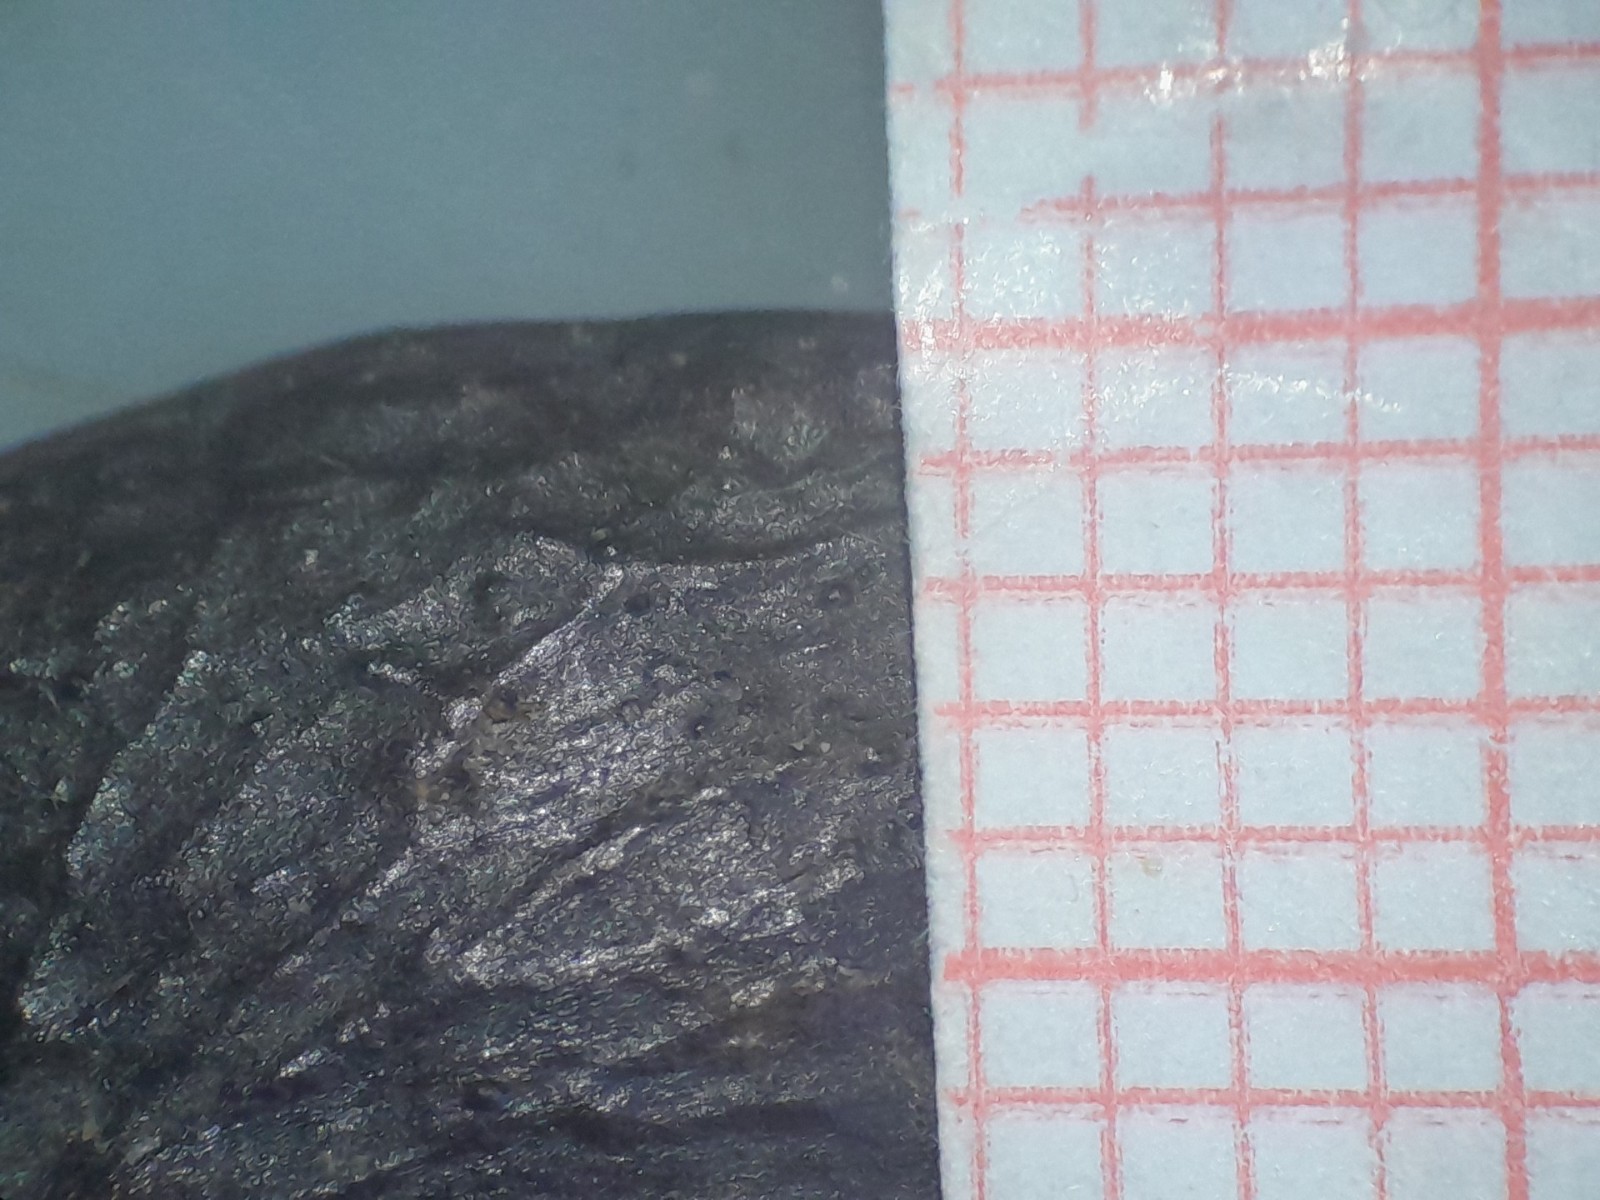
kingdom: Fungi
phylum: Ascomycota
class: Sordariomycetes
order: Diaporthales
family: Diaporthaceae
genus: Phomopsis
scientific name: Phomopsis
